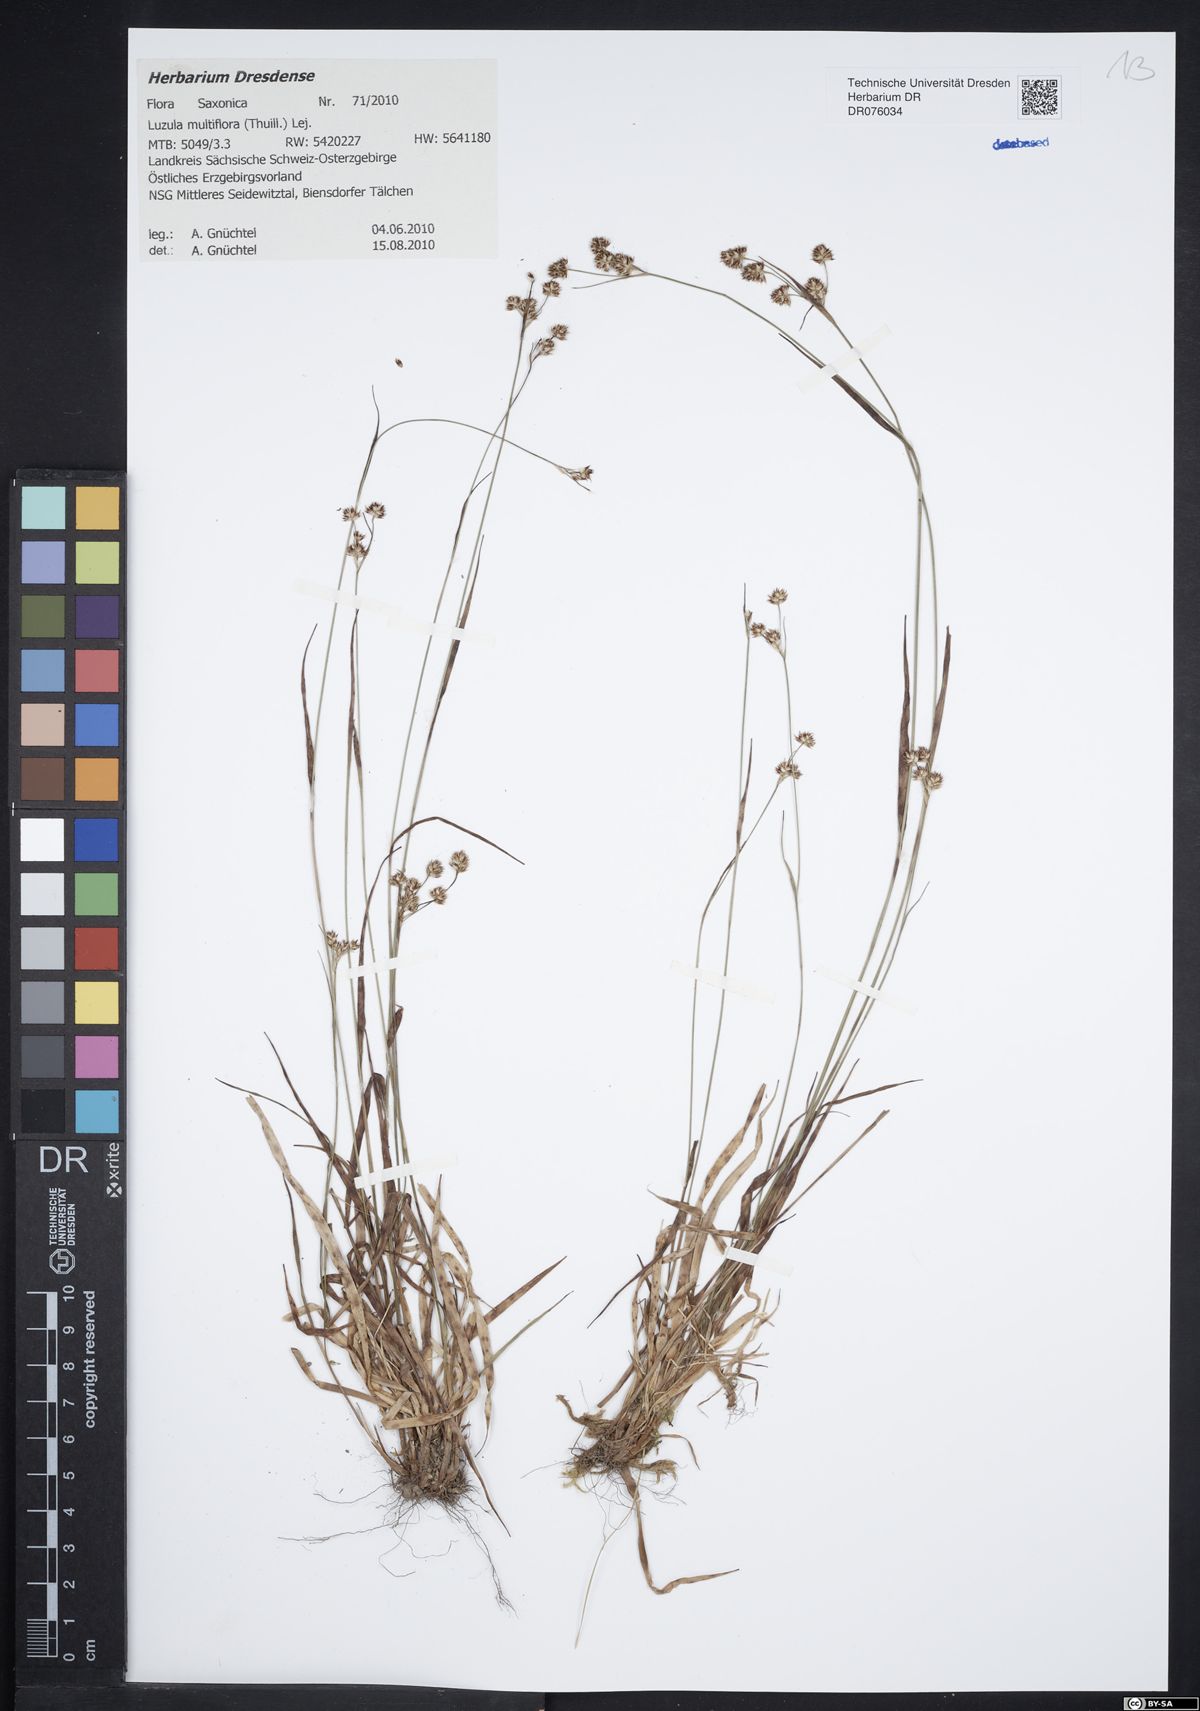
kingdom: Plantae
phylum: Tracheophyta
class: Liliopsida
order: Poales
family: Juncaceae
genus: Luzula
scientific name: Luzula multiflora
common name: Heath wood-rush
